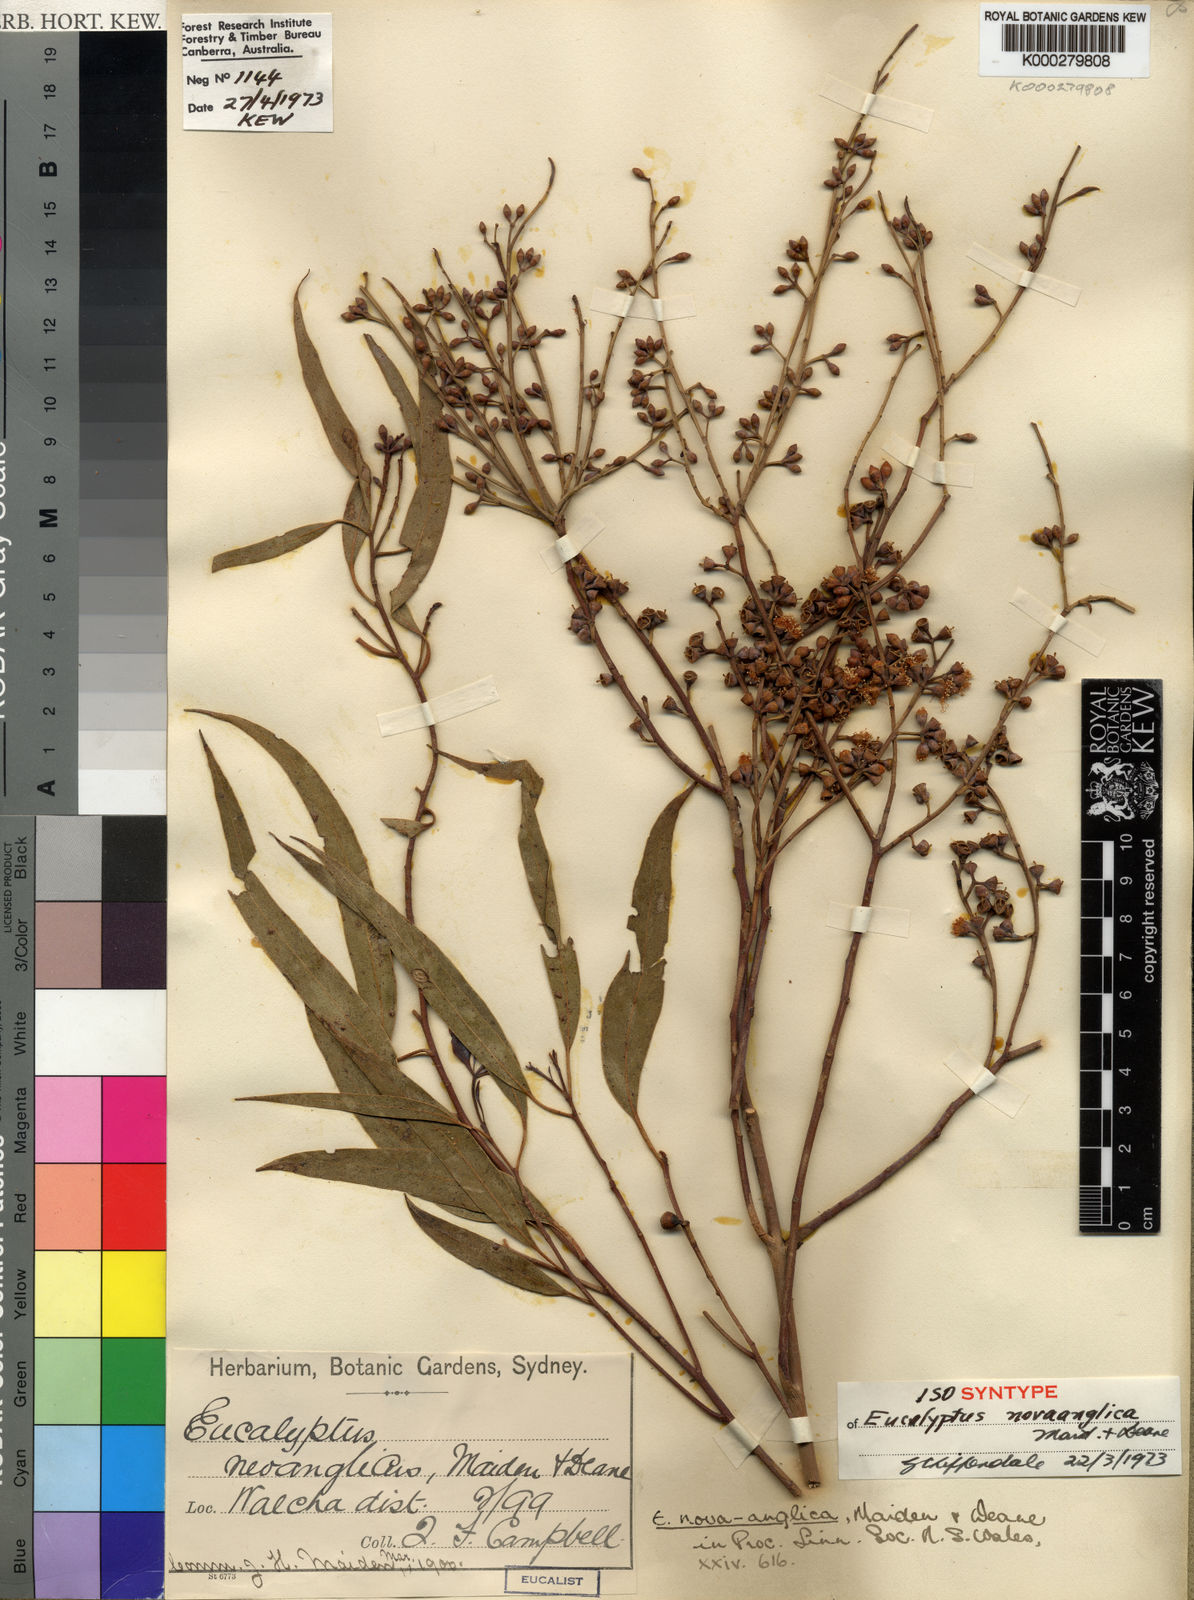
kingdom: Plantae
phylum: Tracheophyta
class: Magnoliopsida
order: Myrtales
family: Myrtaceae
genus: Eucalyptus
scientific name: Eucalyptus nova-anglica
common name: Black peppermint
